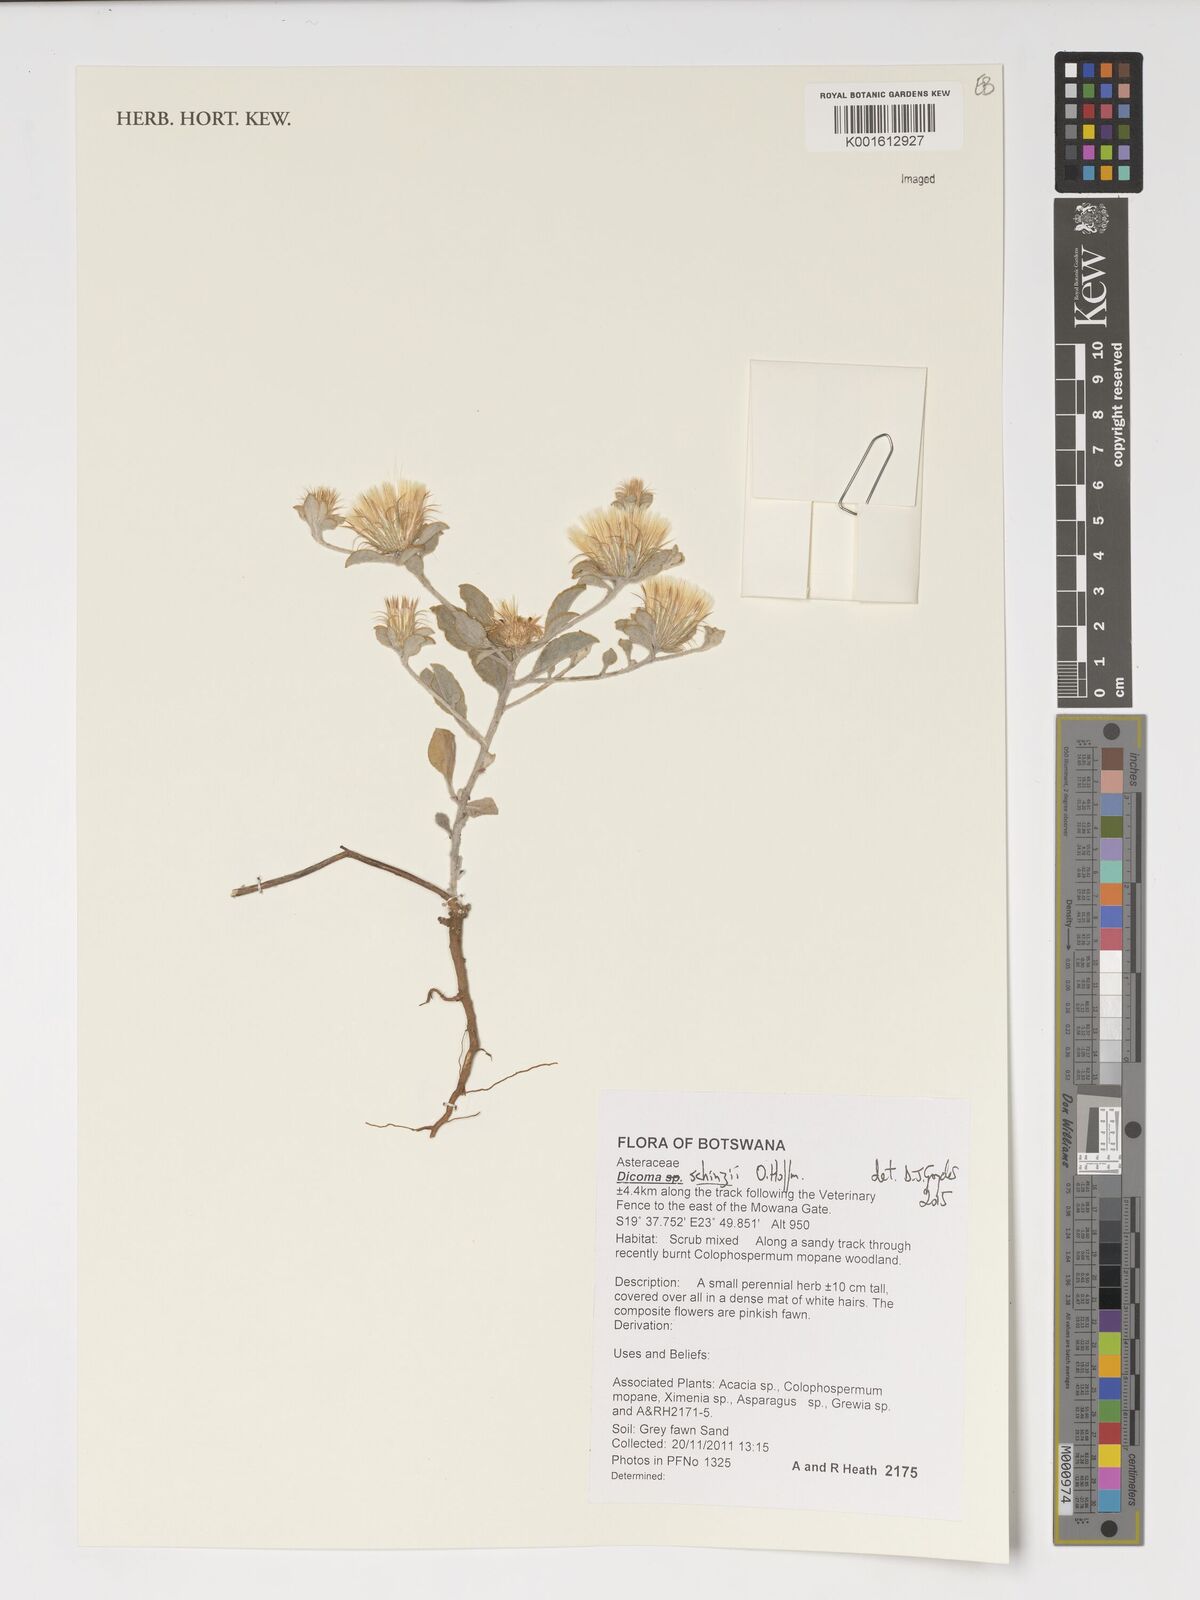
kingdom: Plantae
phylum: Tracheophyta
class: Magnoliopsida
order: Asterales
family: Asteraceae
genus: Dicoma
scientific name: Dicoma schinzii
